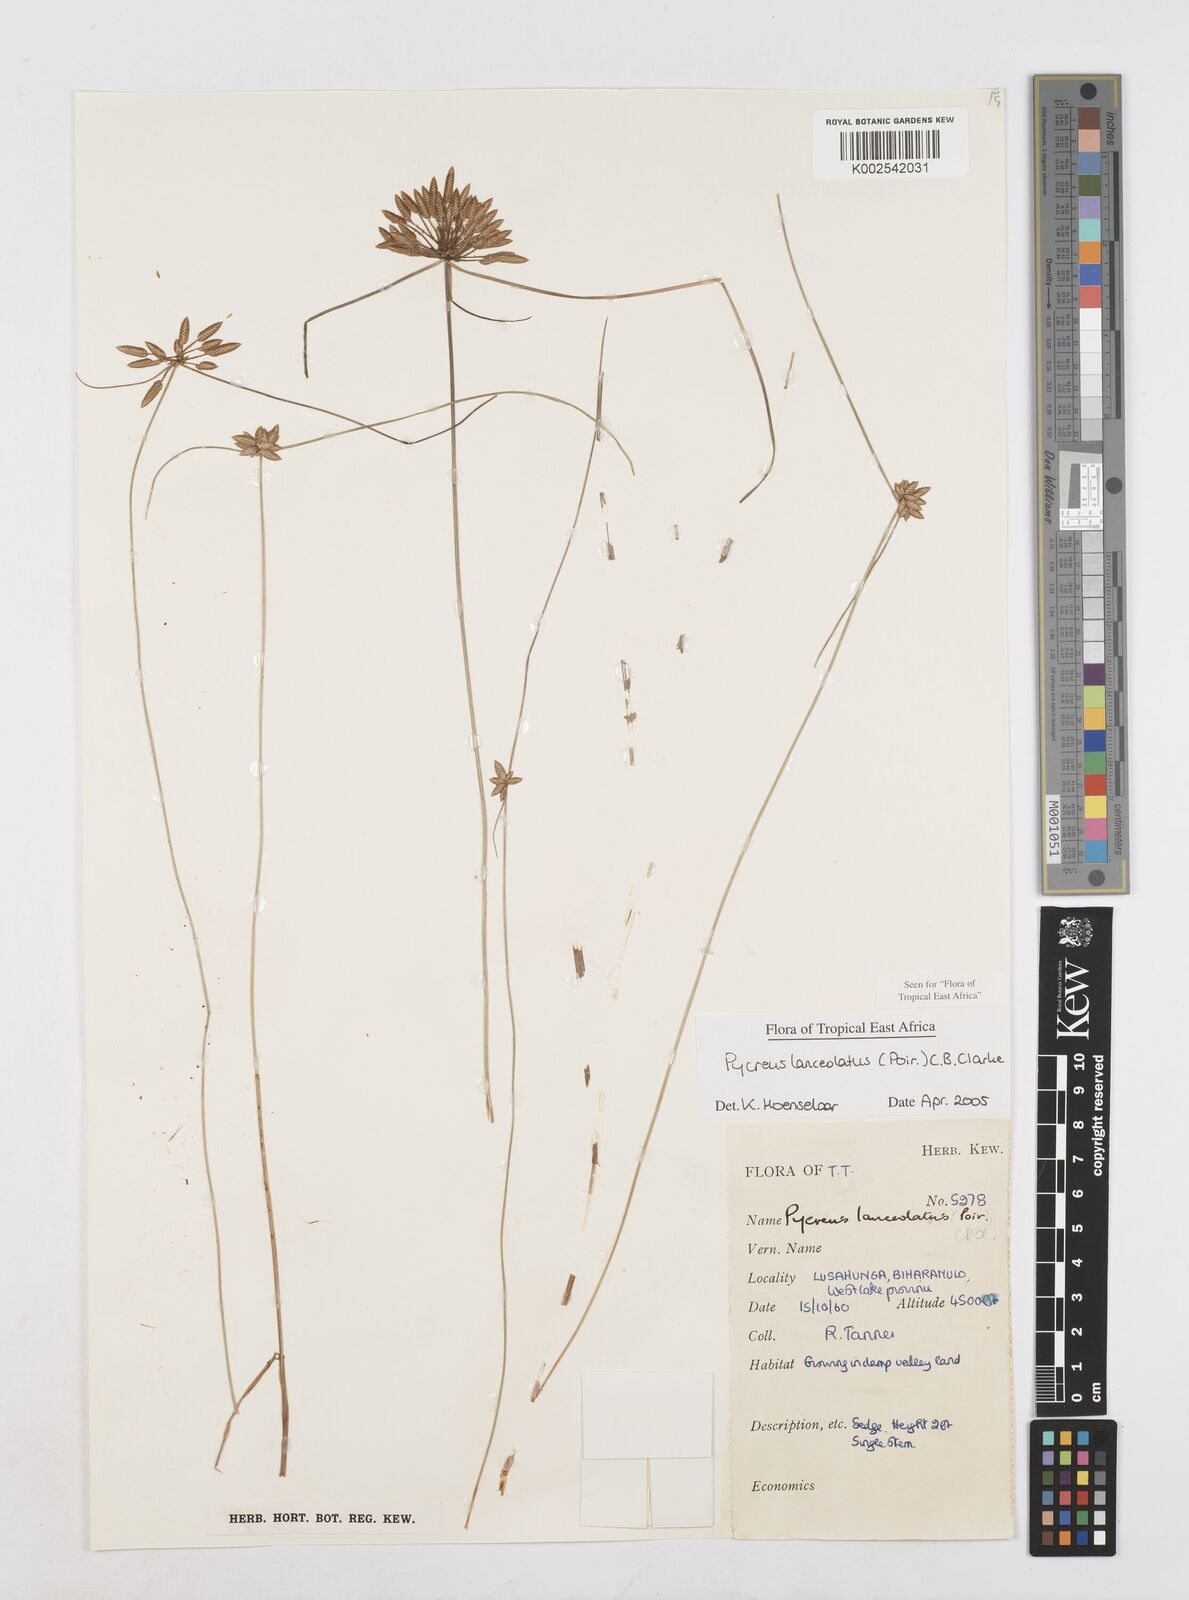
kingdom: Plantae
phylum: Tracheophyta
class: Liliopsida
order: Poales
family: Cyperaceae
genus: Cyperus
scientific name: Cyperus lanceolatus
